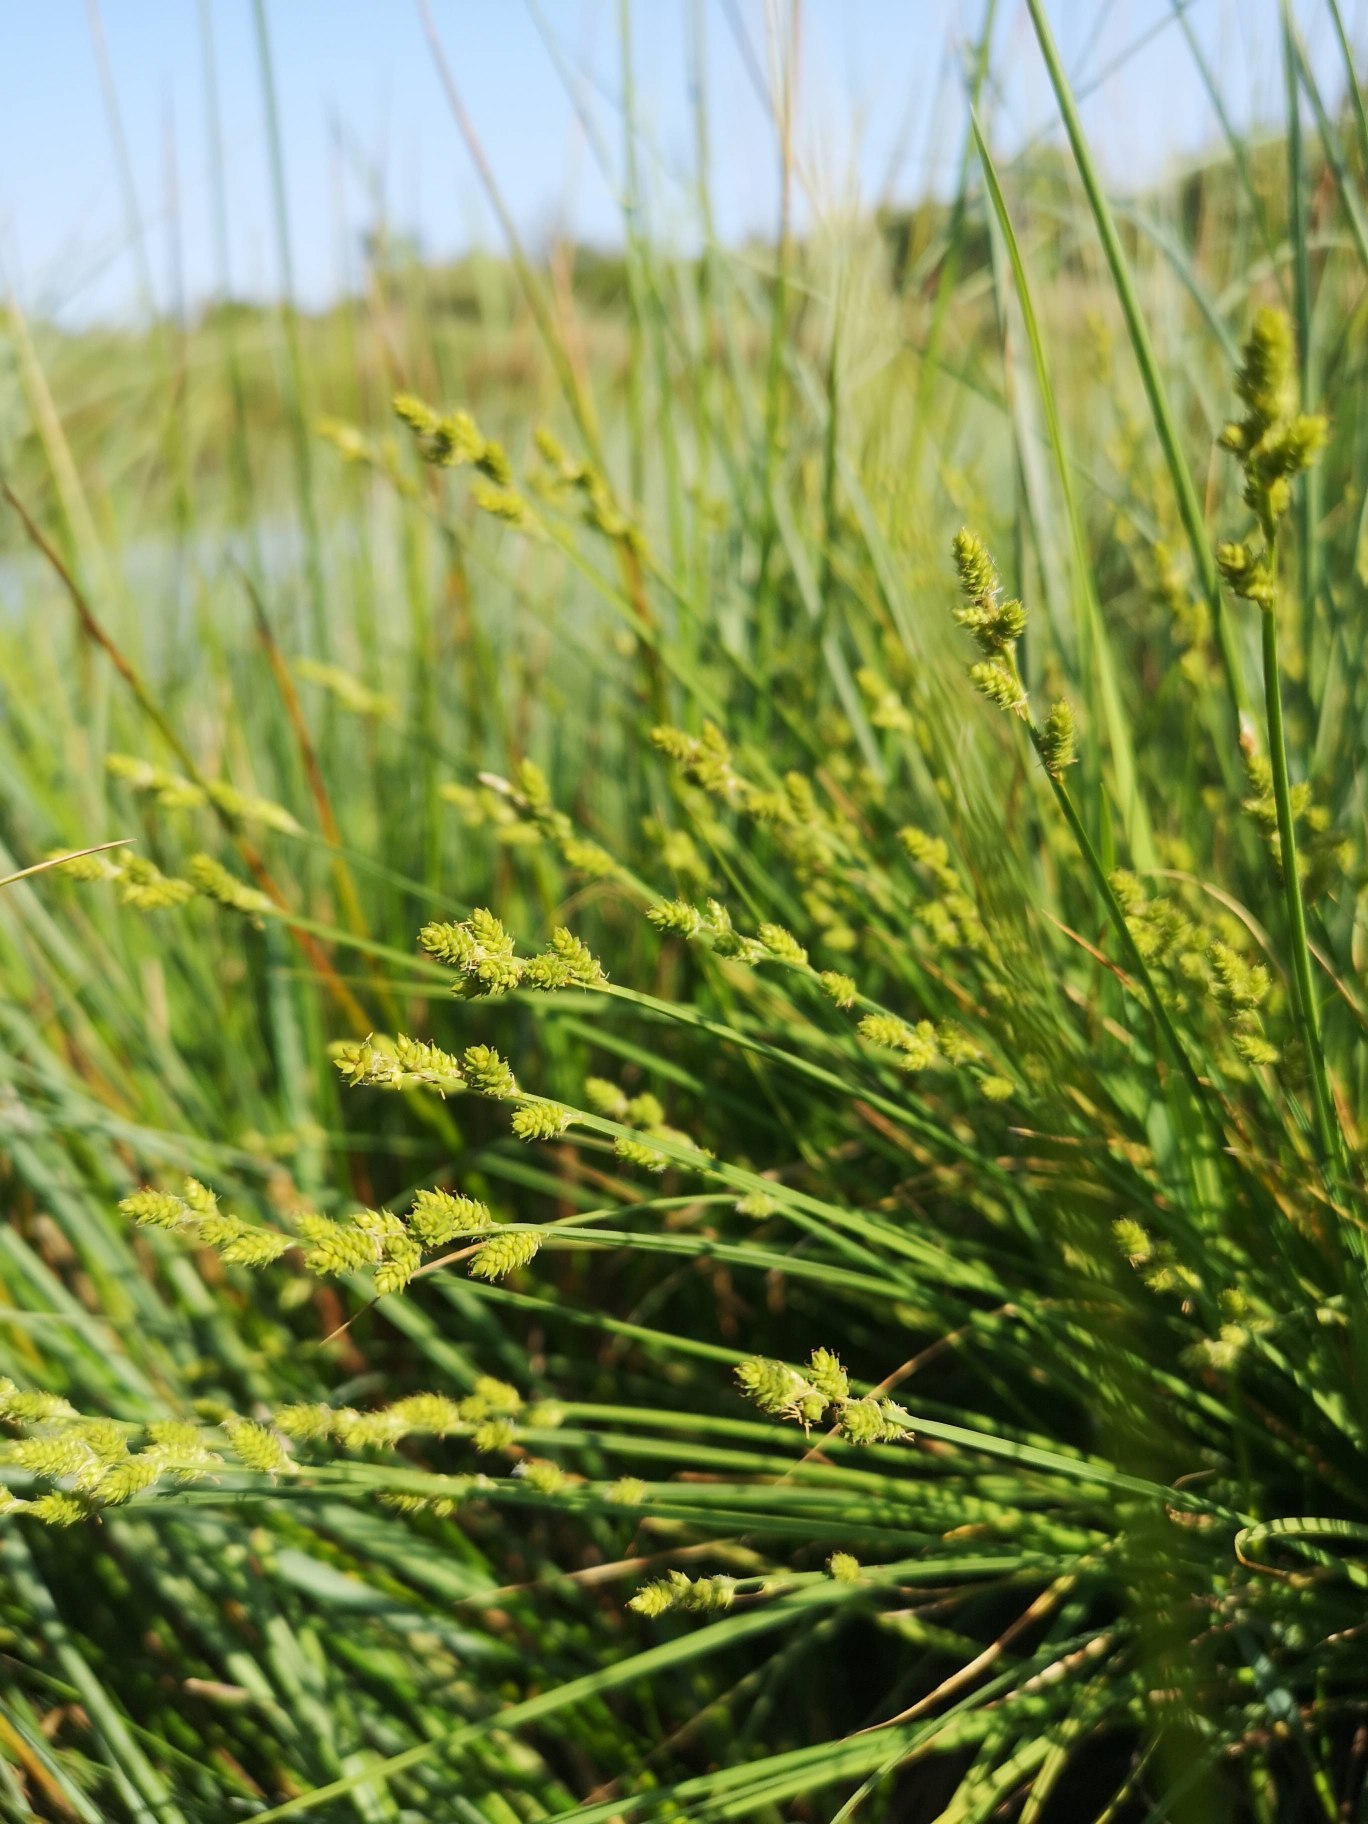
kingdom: Plantae
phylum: Tracheophyta
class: Liliopsida
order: Poales
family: Cyperaceae
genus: Carex
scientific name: Carex canescens
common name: Grå star
